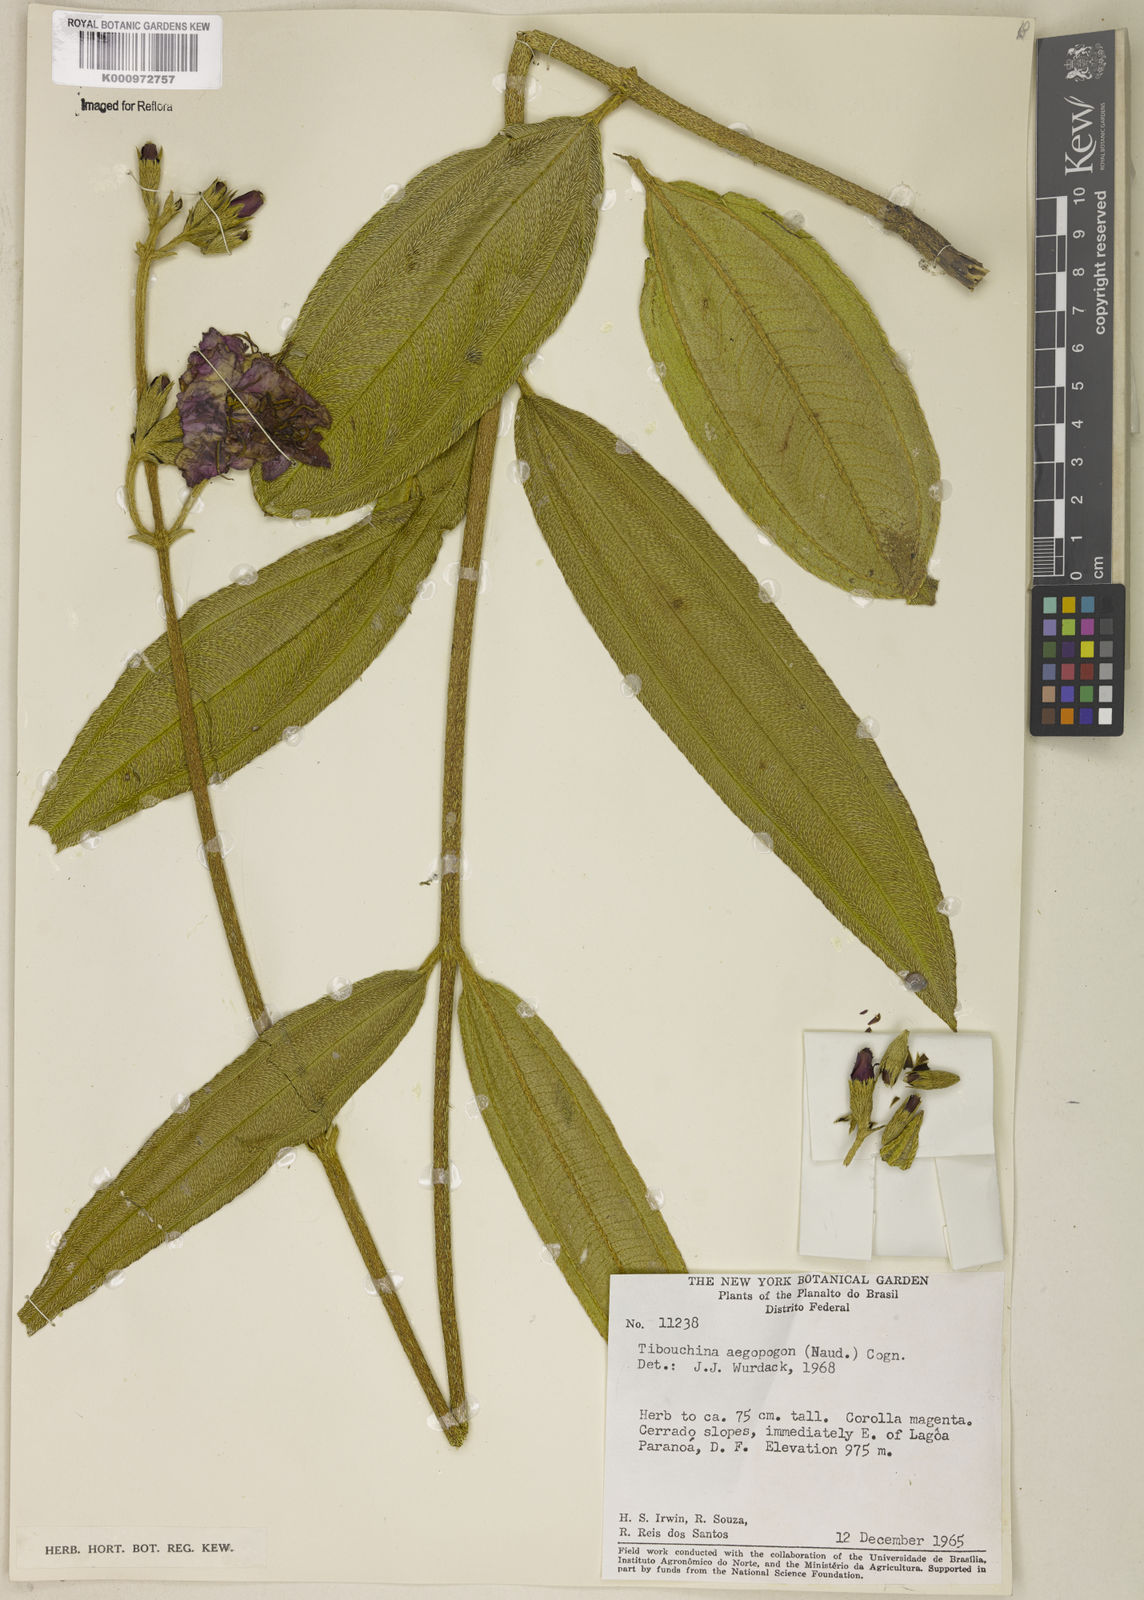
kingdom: Plantae
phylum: Tracheophyta
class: Magnoliopsida
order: Myrtales
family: Melastomataceae
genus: Pleroma
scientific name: Pleroma aegopogon
